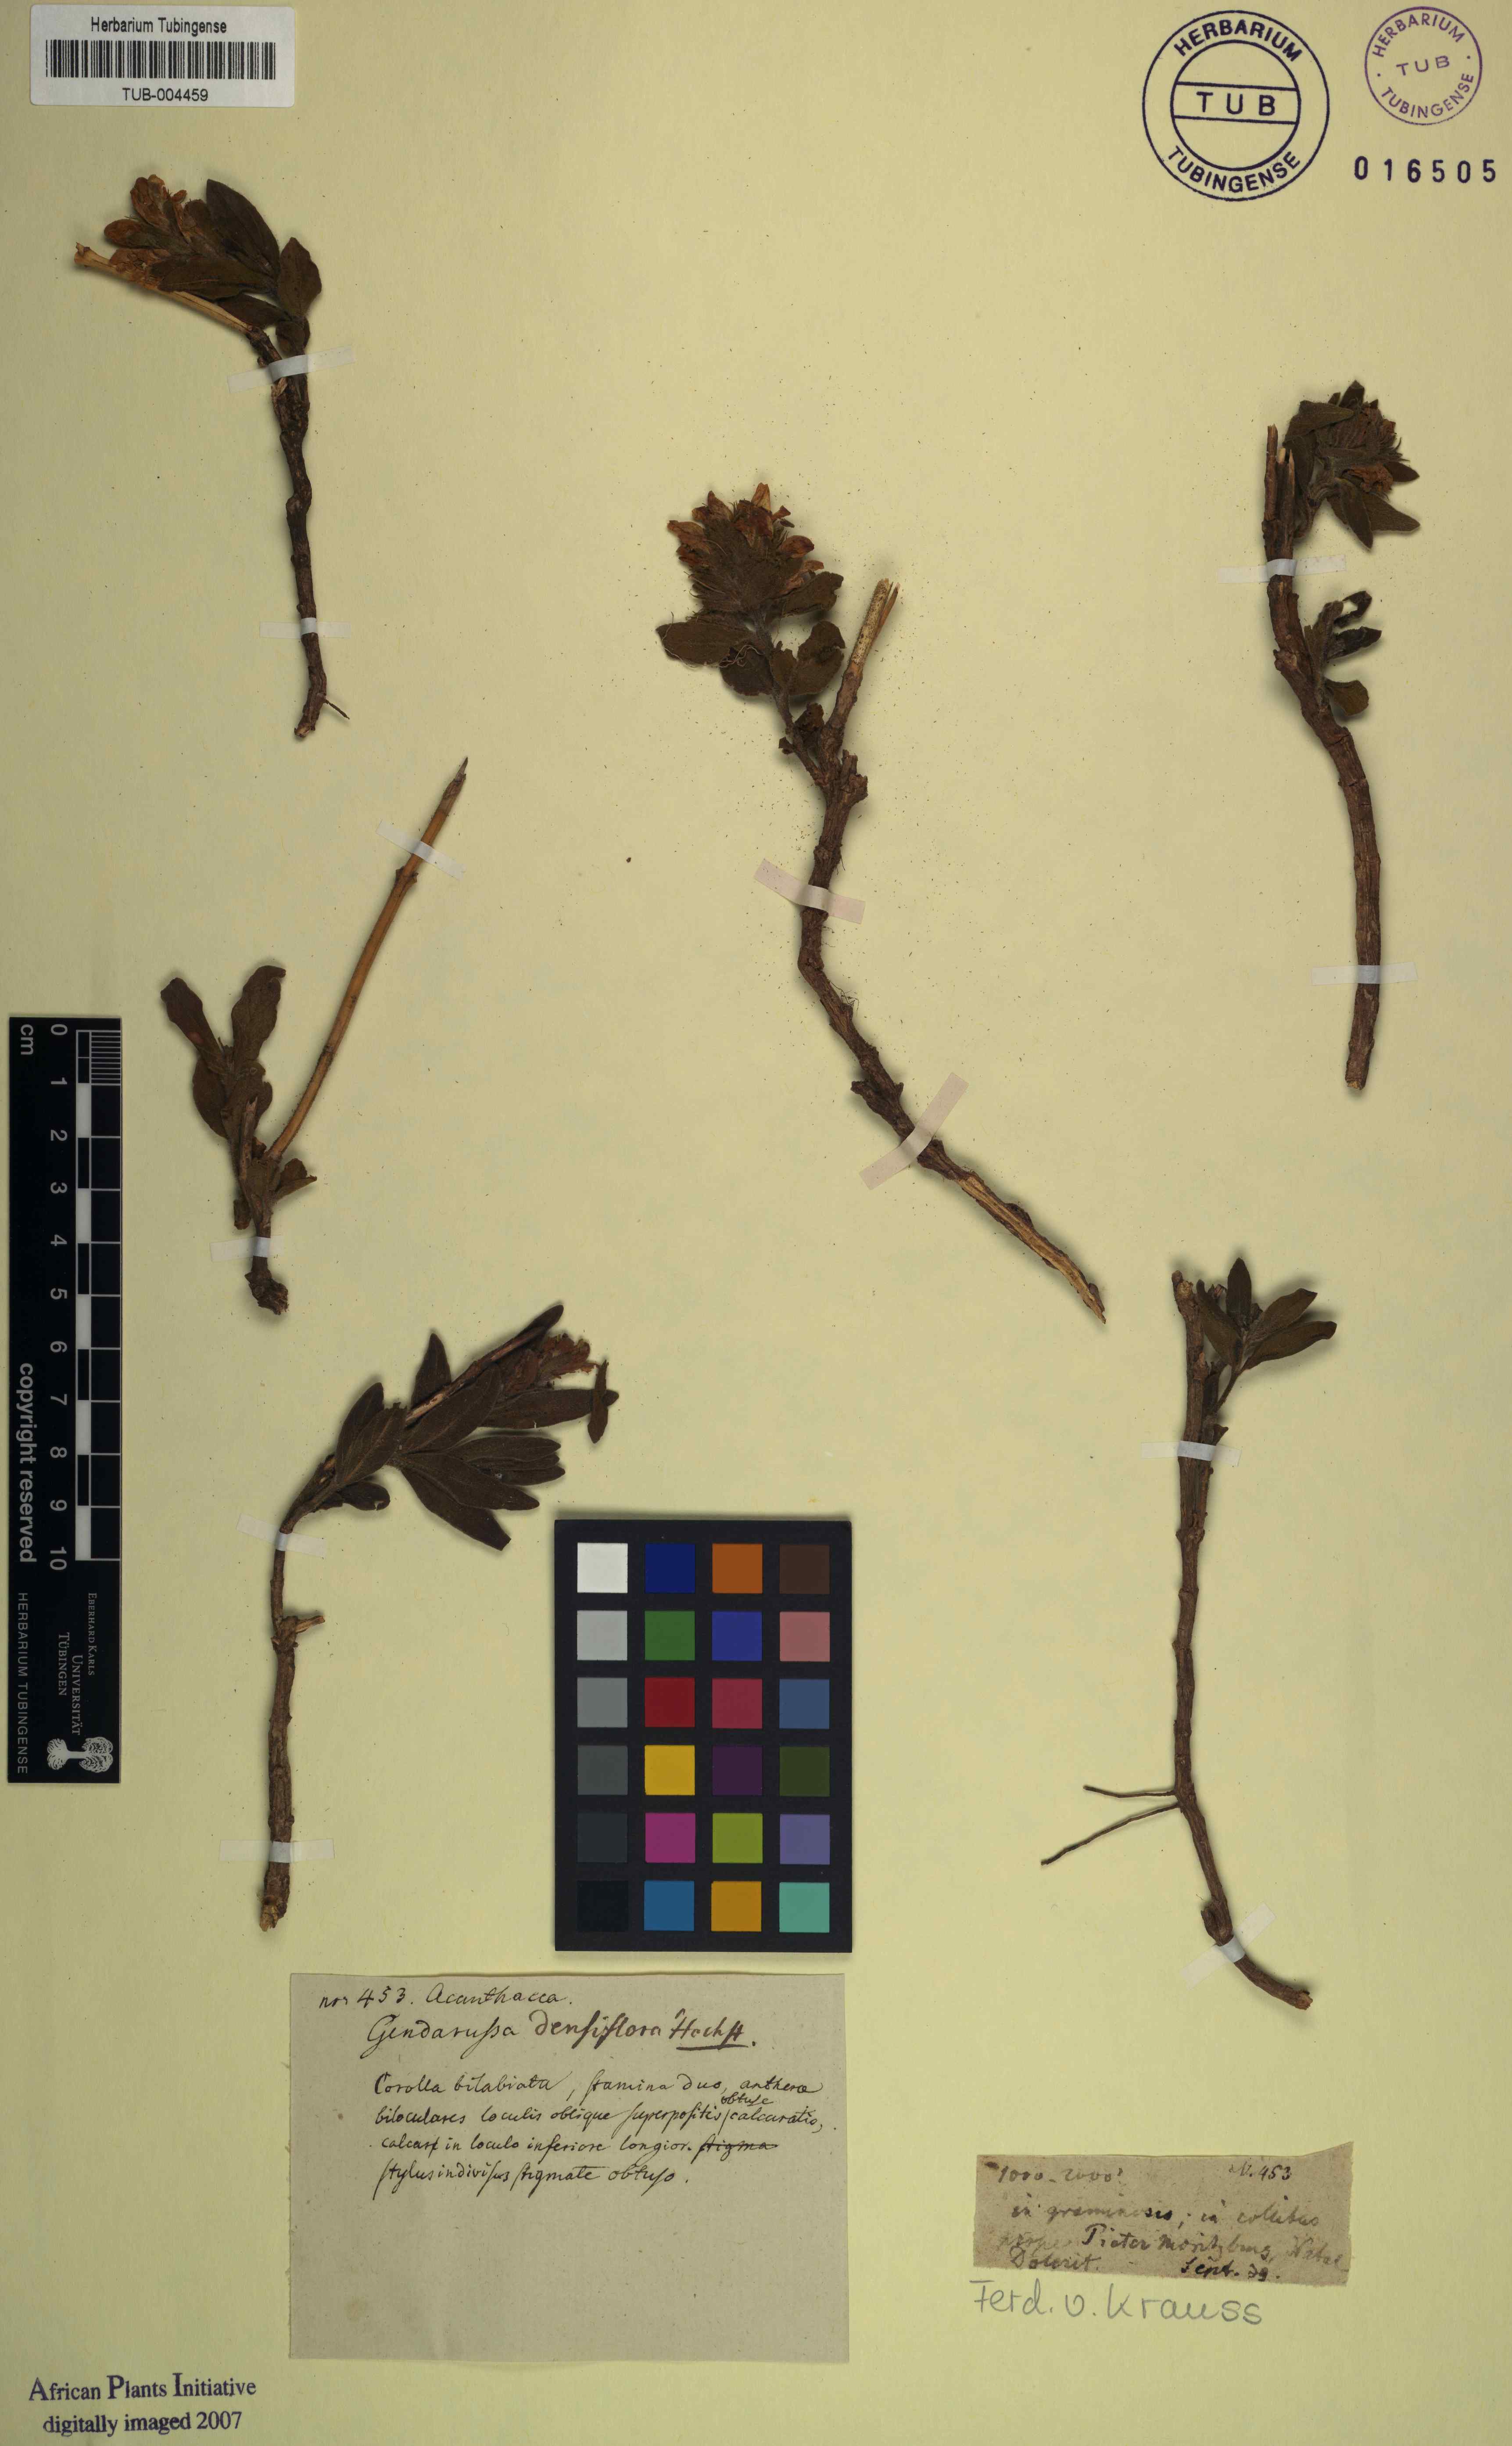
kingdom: Plantae
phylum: Tracheophyta
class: Magnoliopsida
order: Lamiales
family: Acanthaceae
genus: Monechma
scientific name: Monechma salsola
